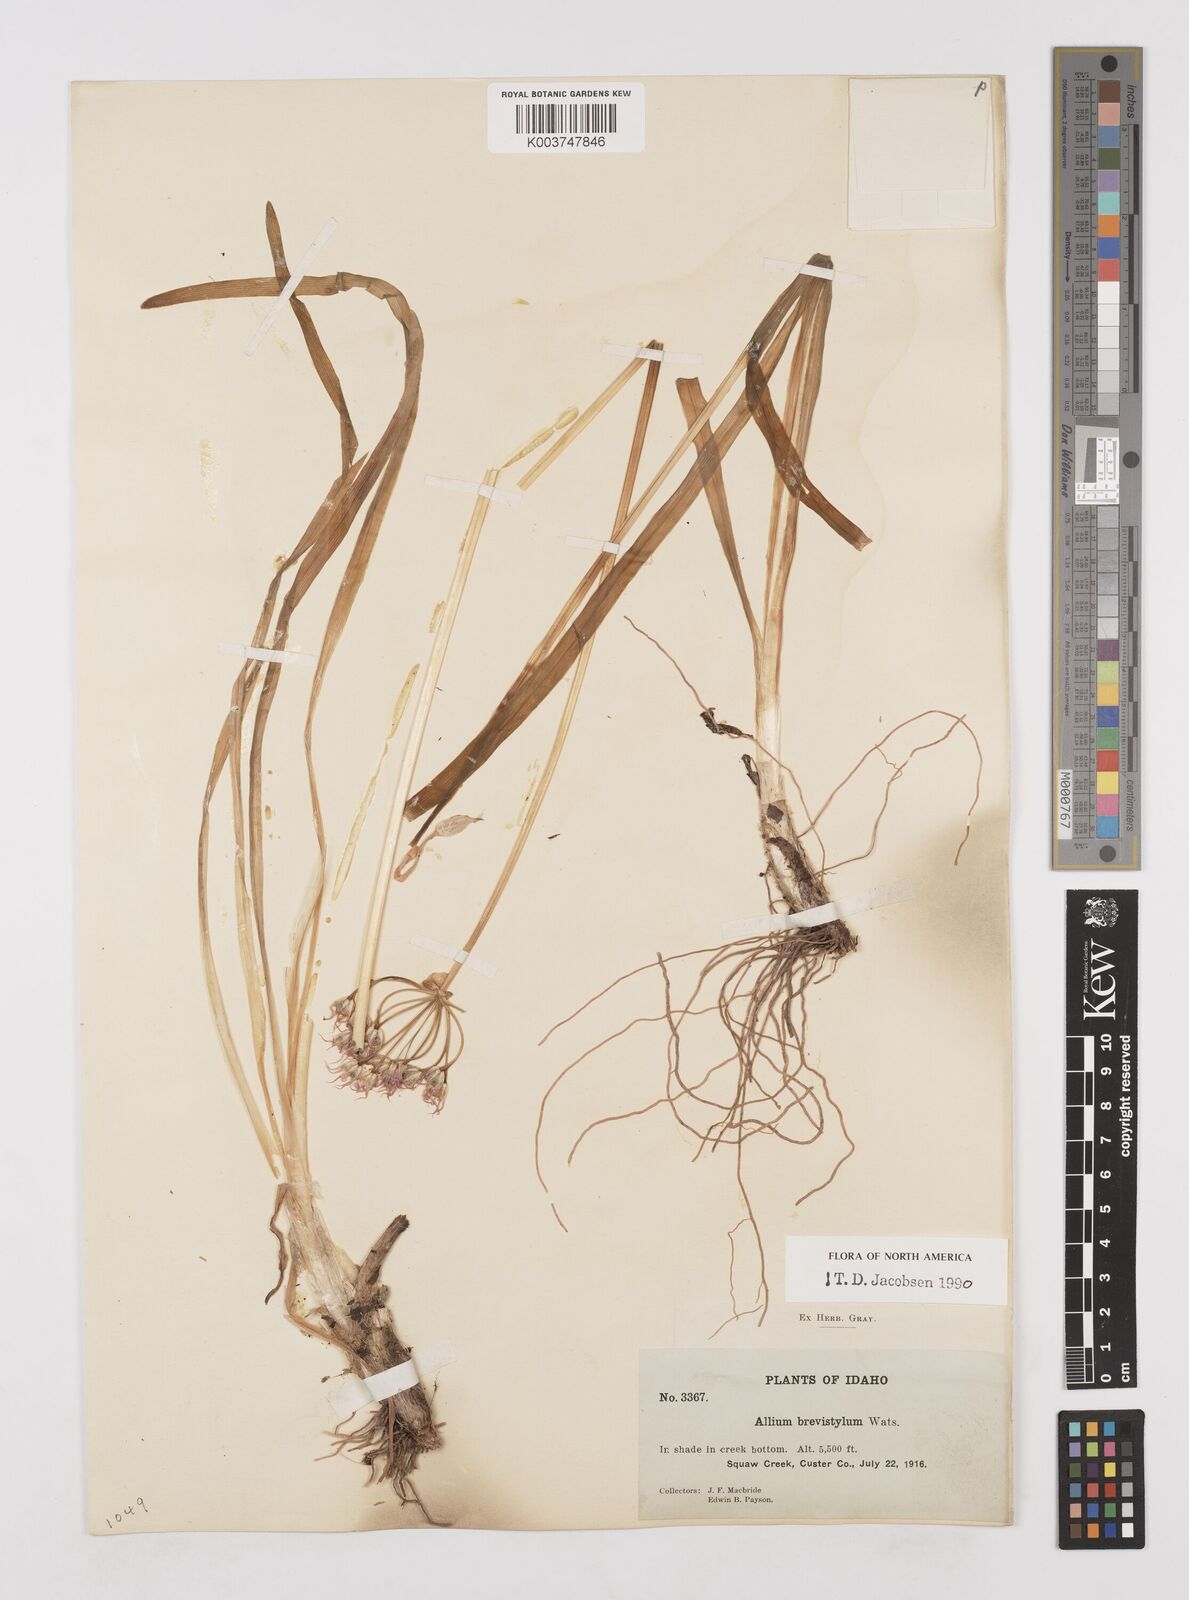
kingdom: Plantae
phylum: Tracheophyta
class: Liliopsida
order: Asparagales
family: Amaryllidaceae
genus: Allium
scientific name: Allium brevistylum
